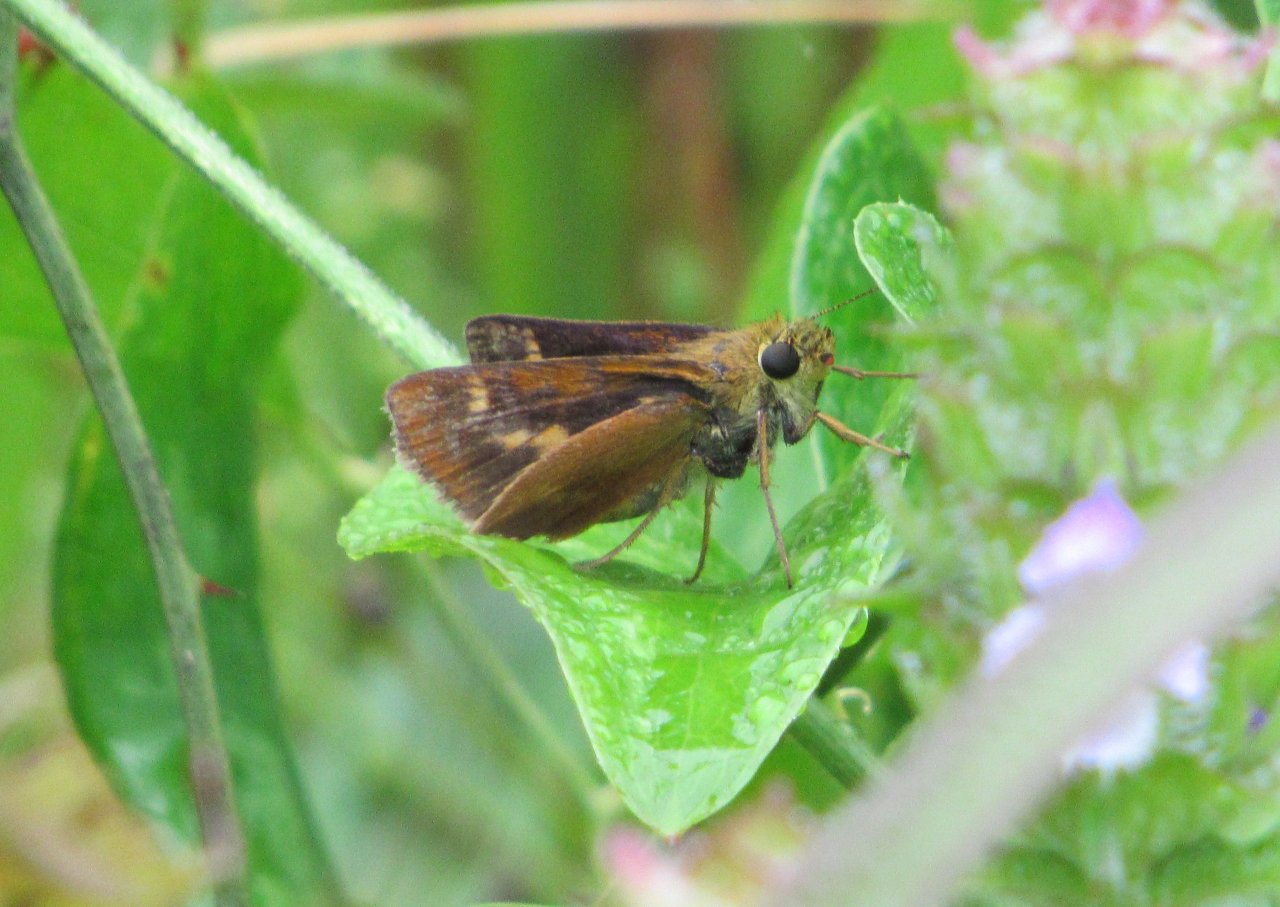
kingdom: Animalia
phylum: Arthropoda
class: Insecta
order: Lepidoptera
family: Hesperiidae
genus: Polites
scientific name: Polites
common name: Crossline Skipper
